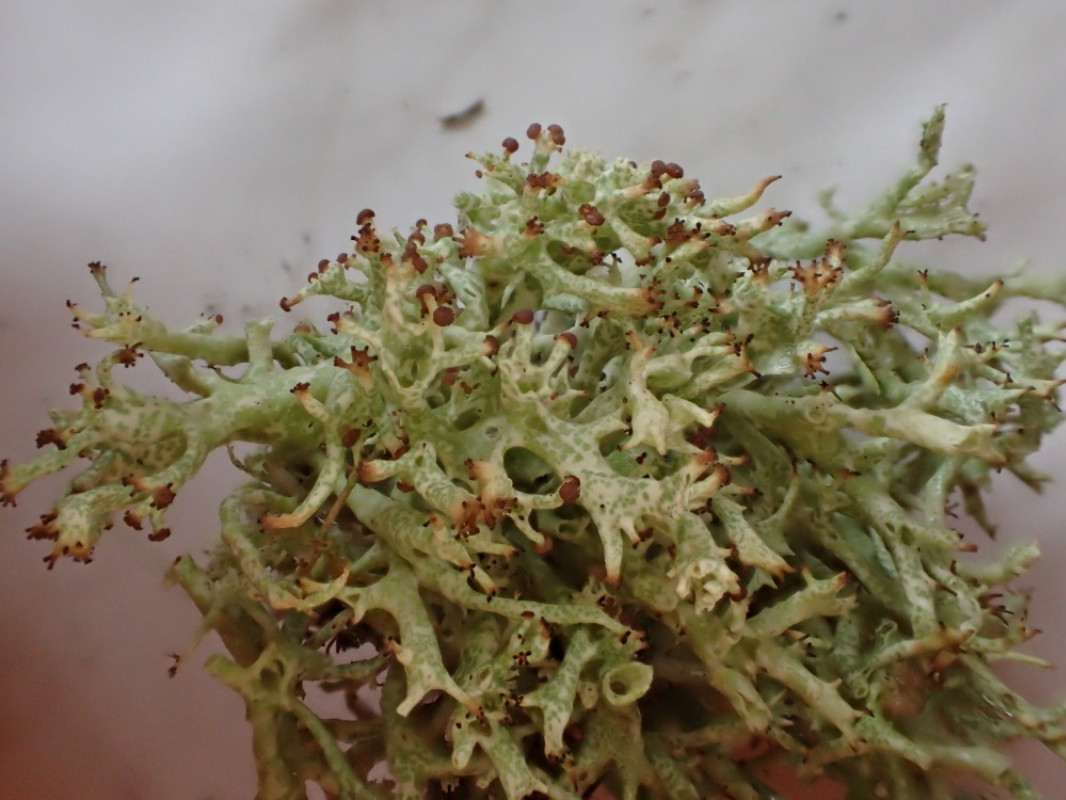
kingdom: Fungi
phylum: Ascomycota
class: Lecanoromycetes
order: Lecanorales
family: Cladoniaceae
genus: Cladonia
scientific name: Cladonia uncialis
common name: pigget bægerlav
